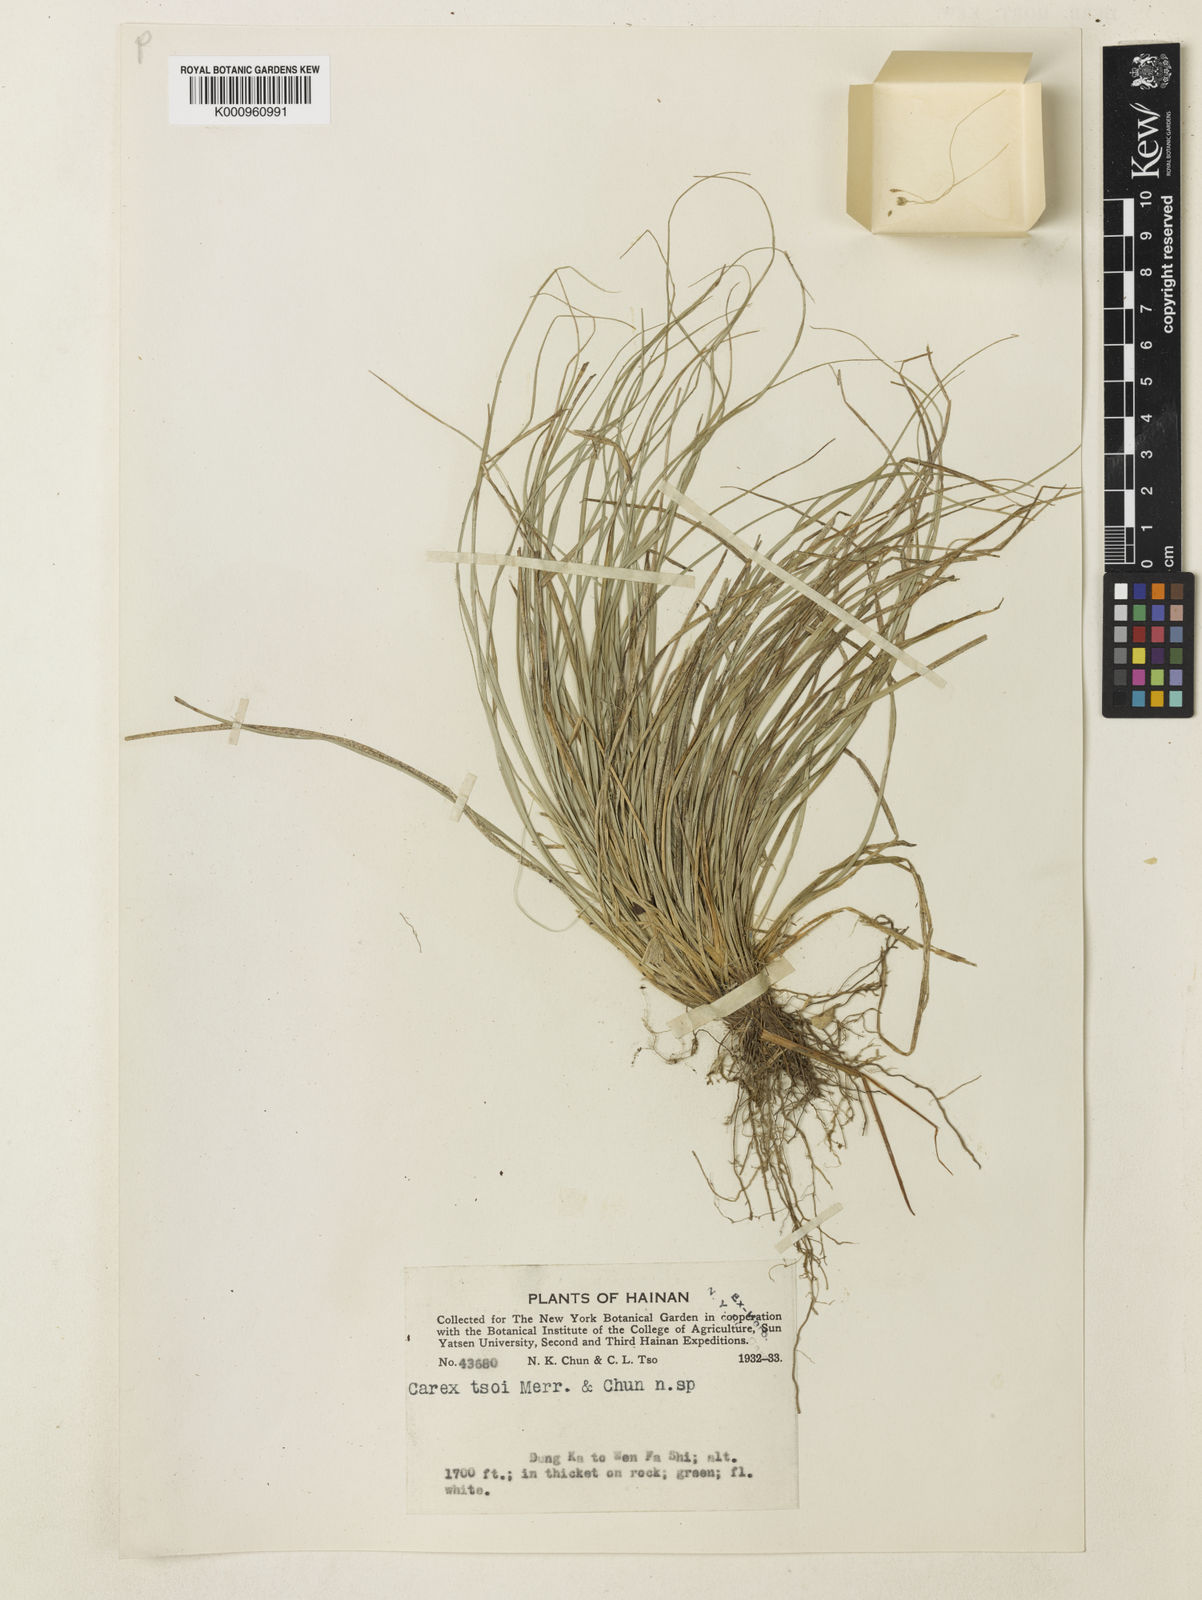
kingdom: Plantae
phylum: Tracheophyta
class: Liliopsida
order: Poales
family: Cyperaceae
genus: Carex
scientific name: Carex tsoi
